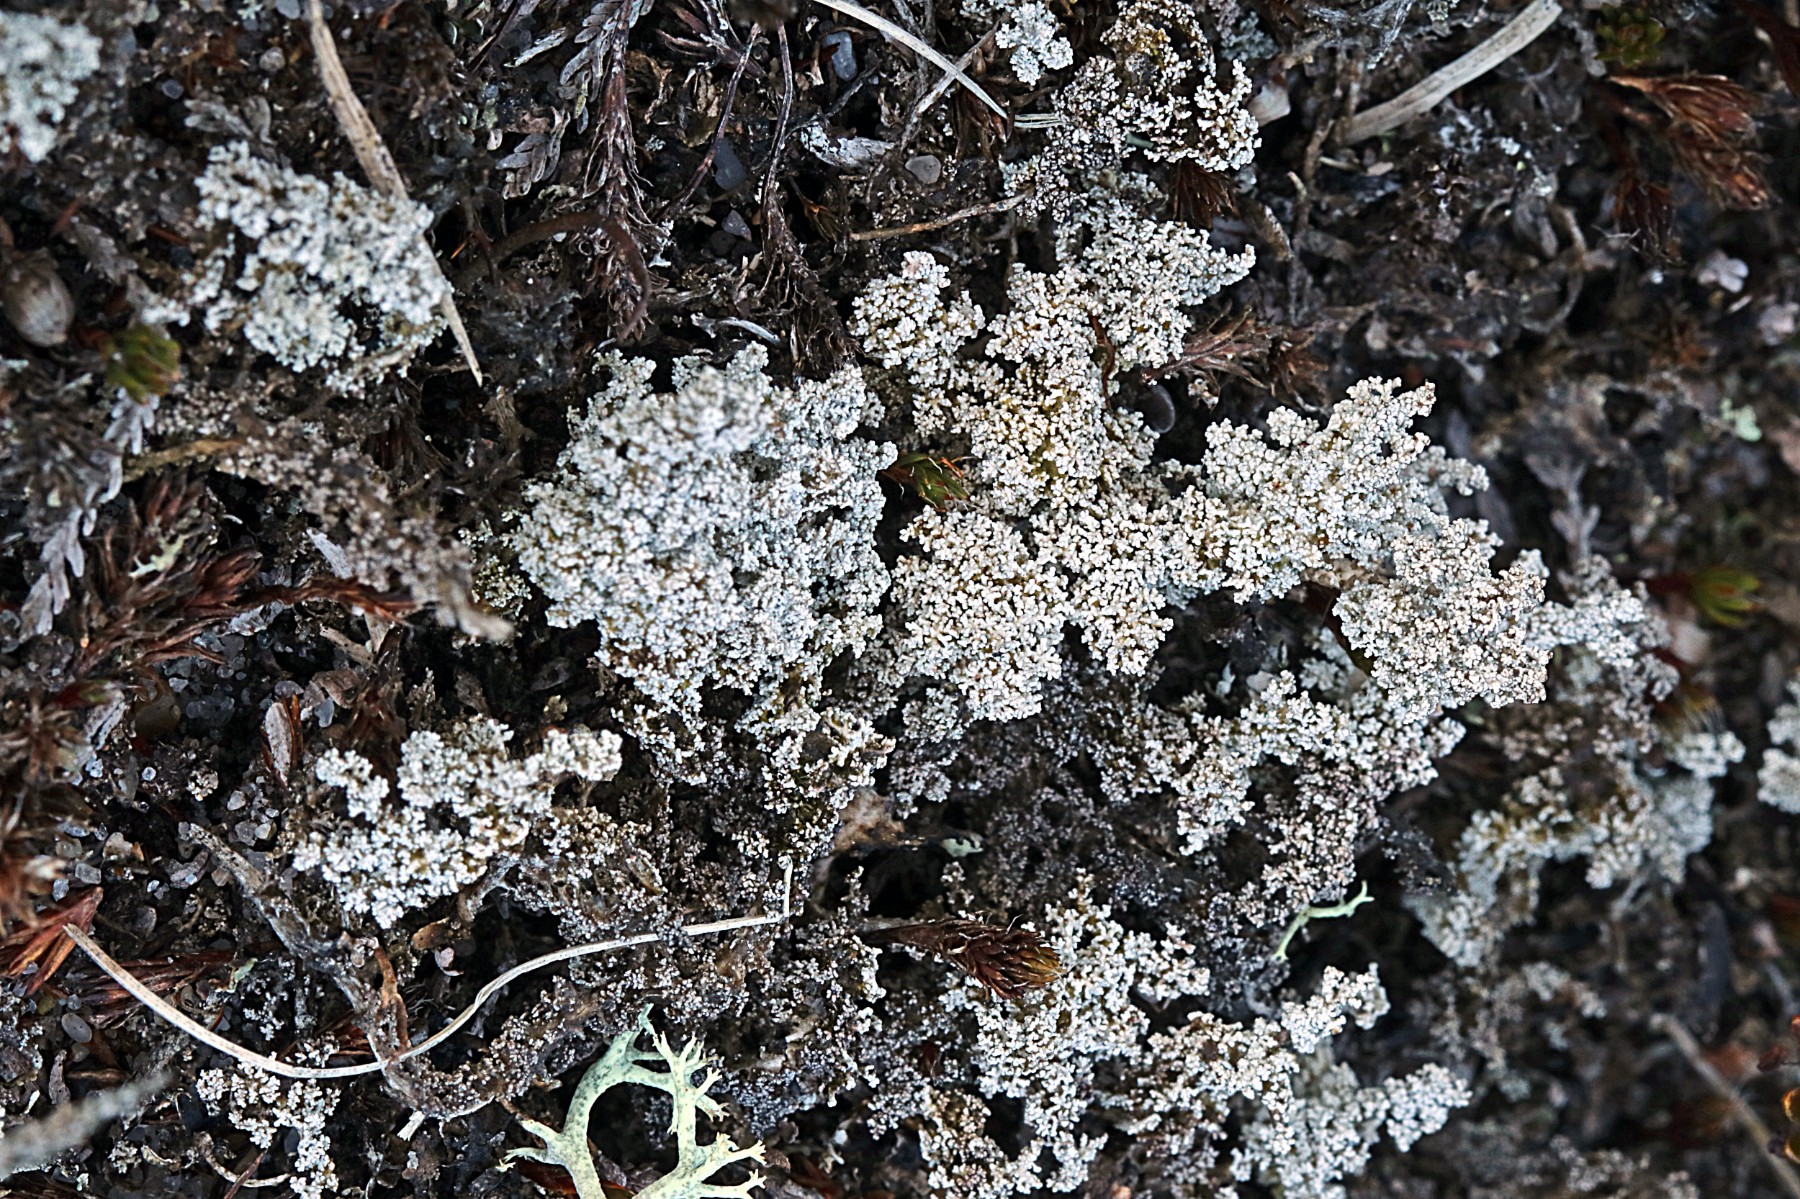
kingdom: Fungi
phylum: Ascomycota
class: Lecanoromycetes
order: Lecanorales
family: Stereocaulaceae
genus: Stereocaulon
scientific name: Stereocaulon saxatile
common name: klit-korallav
